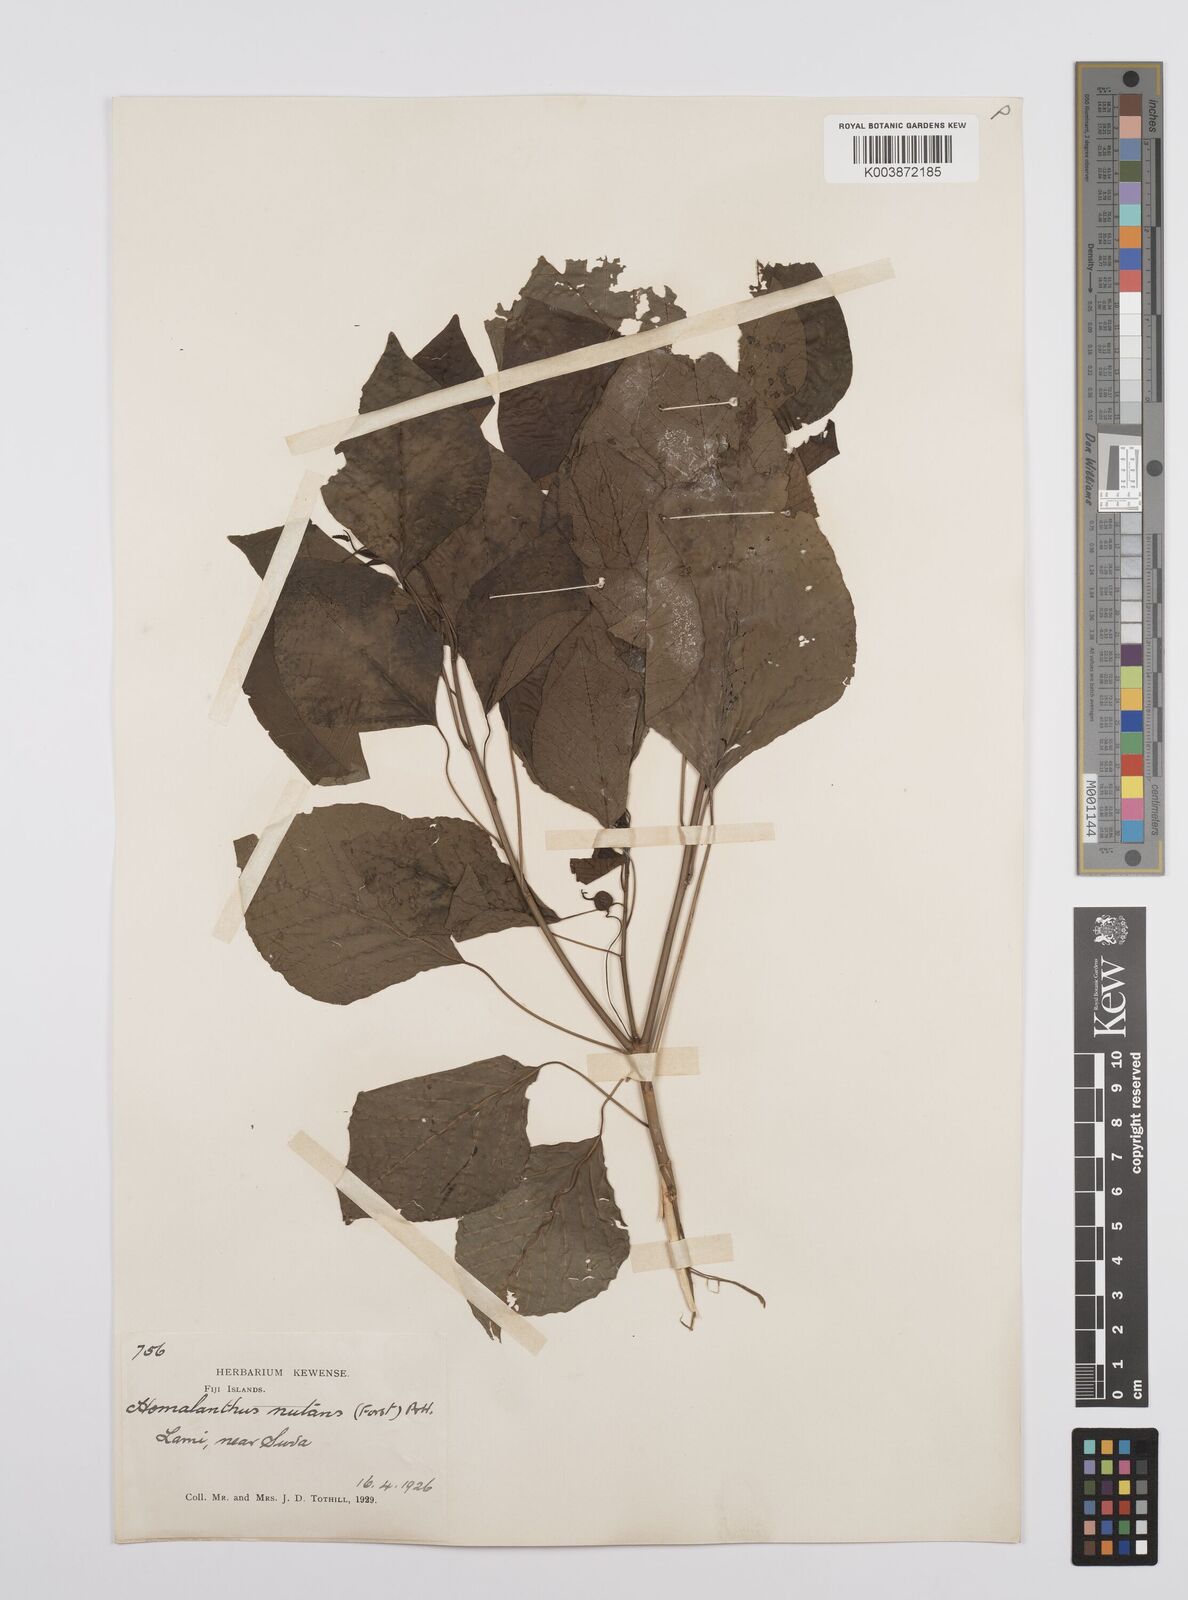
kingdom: Plantae
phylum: Tracheophyta
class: Magnoliopsida
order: Malpighiales
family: Euphorbiaceae
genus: Homalanthus
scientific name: Homalanthus nutans
